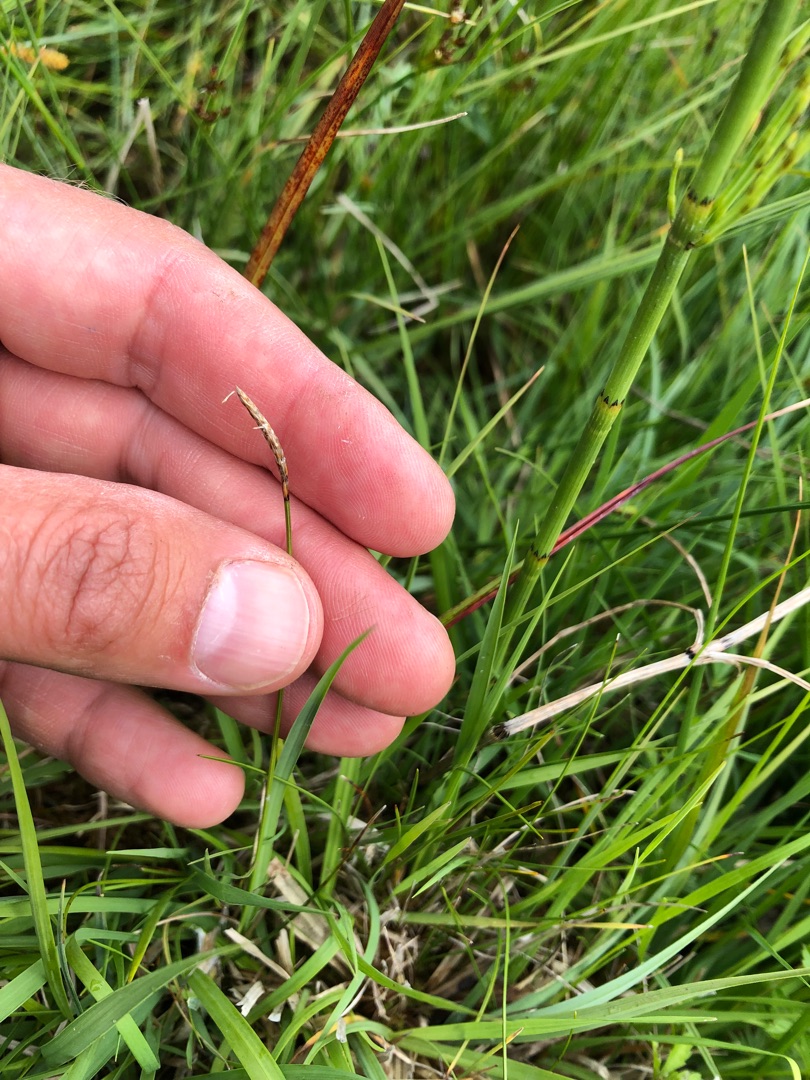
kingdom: Plantae
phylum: Tracheophyta
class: Liliopsida
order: Poales
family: Cyperaceae
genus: Carex
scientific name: Carex dioica
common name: Tvebo star
